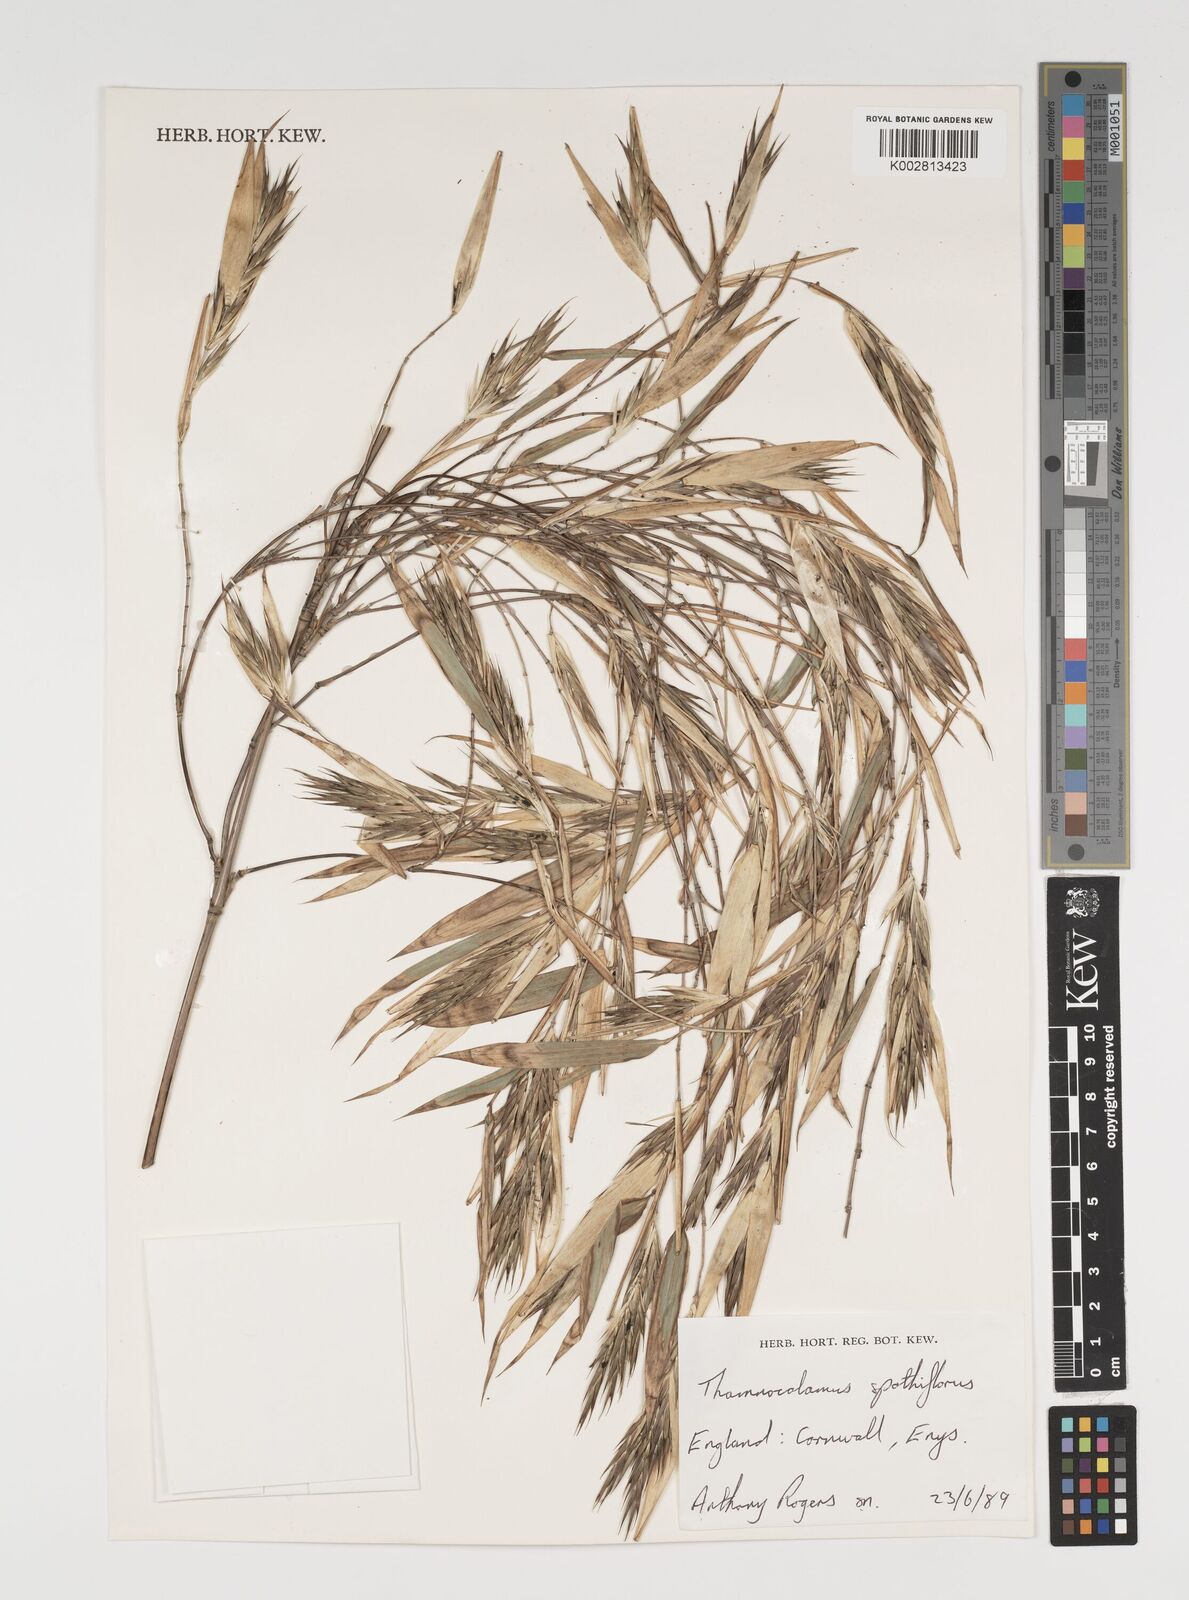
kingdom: Plantae
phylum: Tracheophyta
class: Liliopsida
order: Poales
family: Poaceae
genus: Thamnocalamus
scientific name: Thamnocalamus spathiflorus
